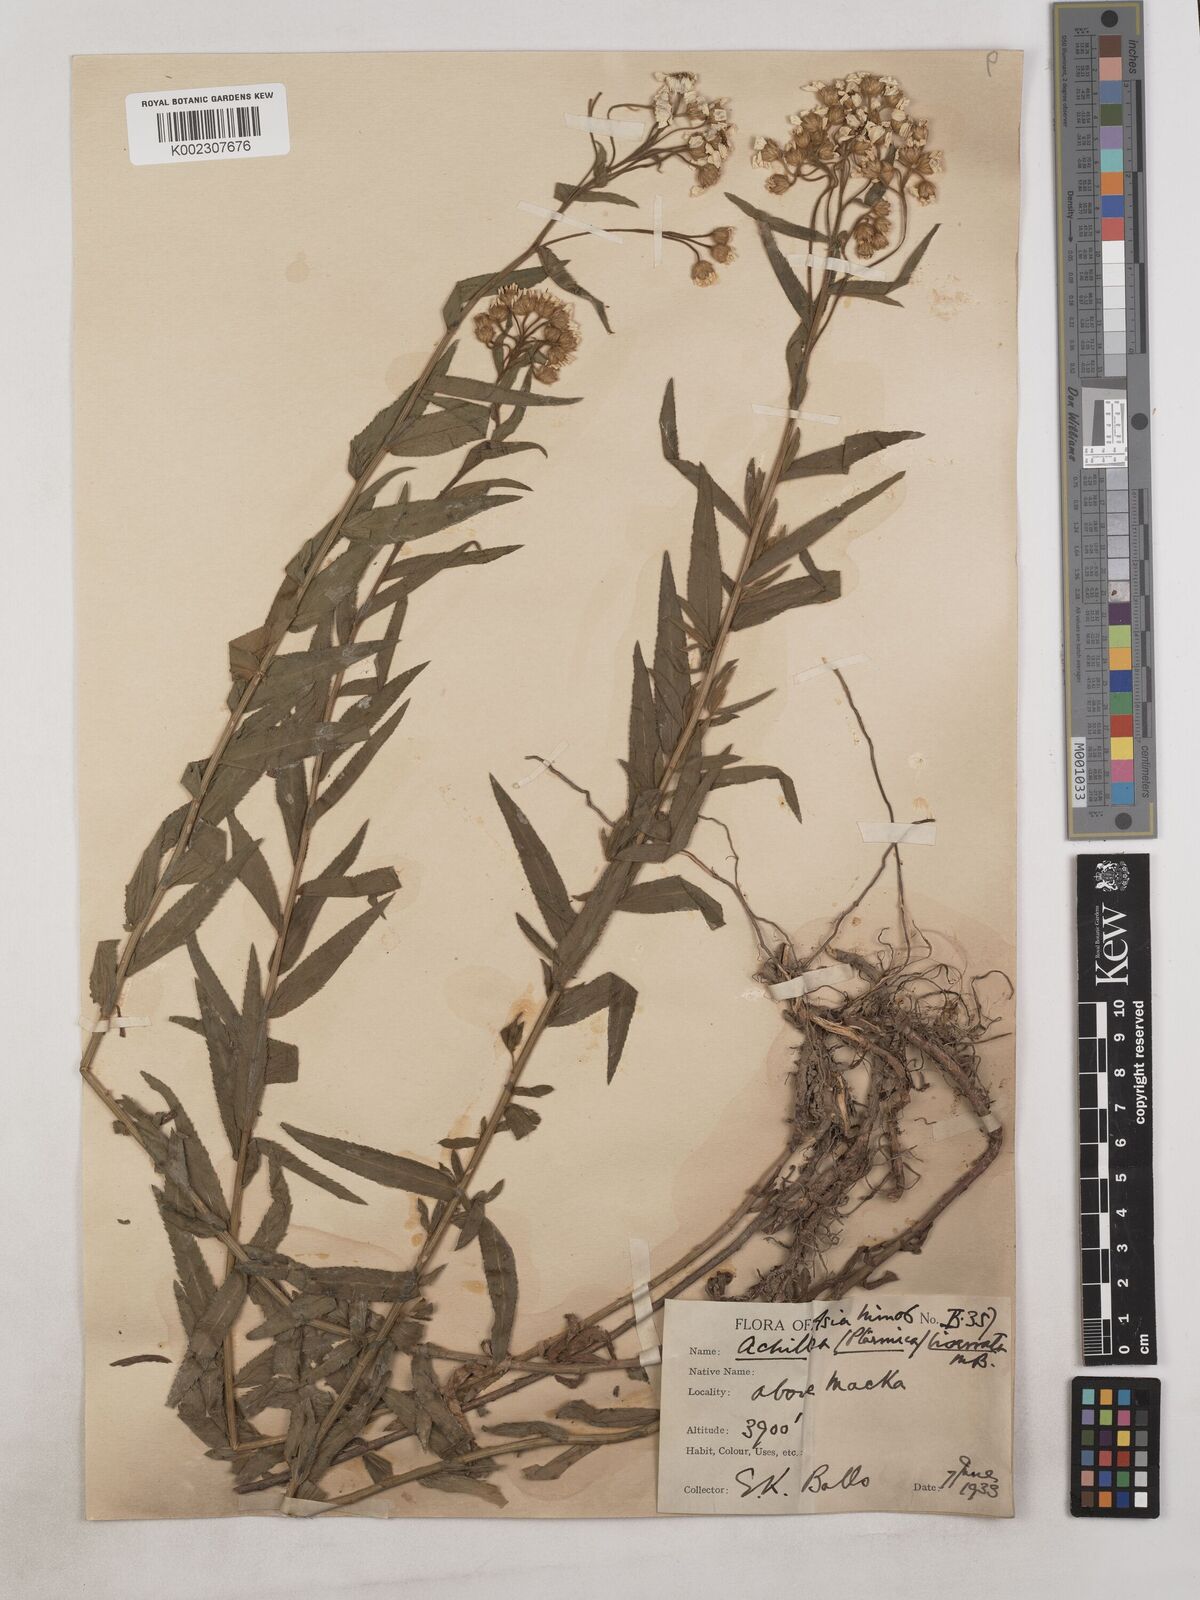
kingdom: Plantae
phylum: Tracheophyta
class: Magnoliopsida
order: Asterales
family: Asteraceae
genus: Achillea
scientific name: Achillea biserrata
